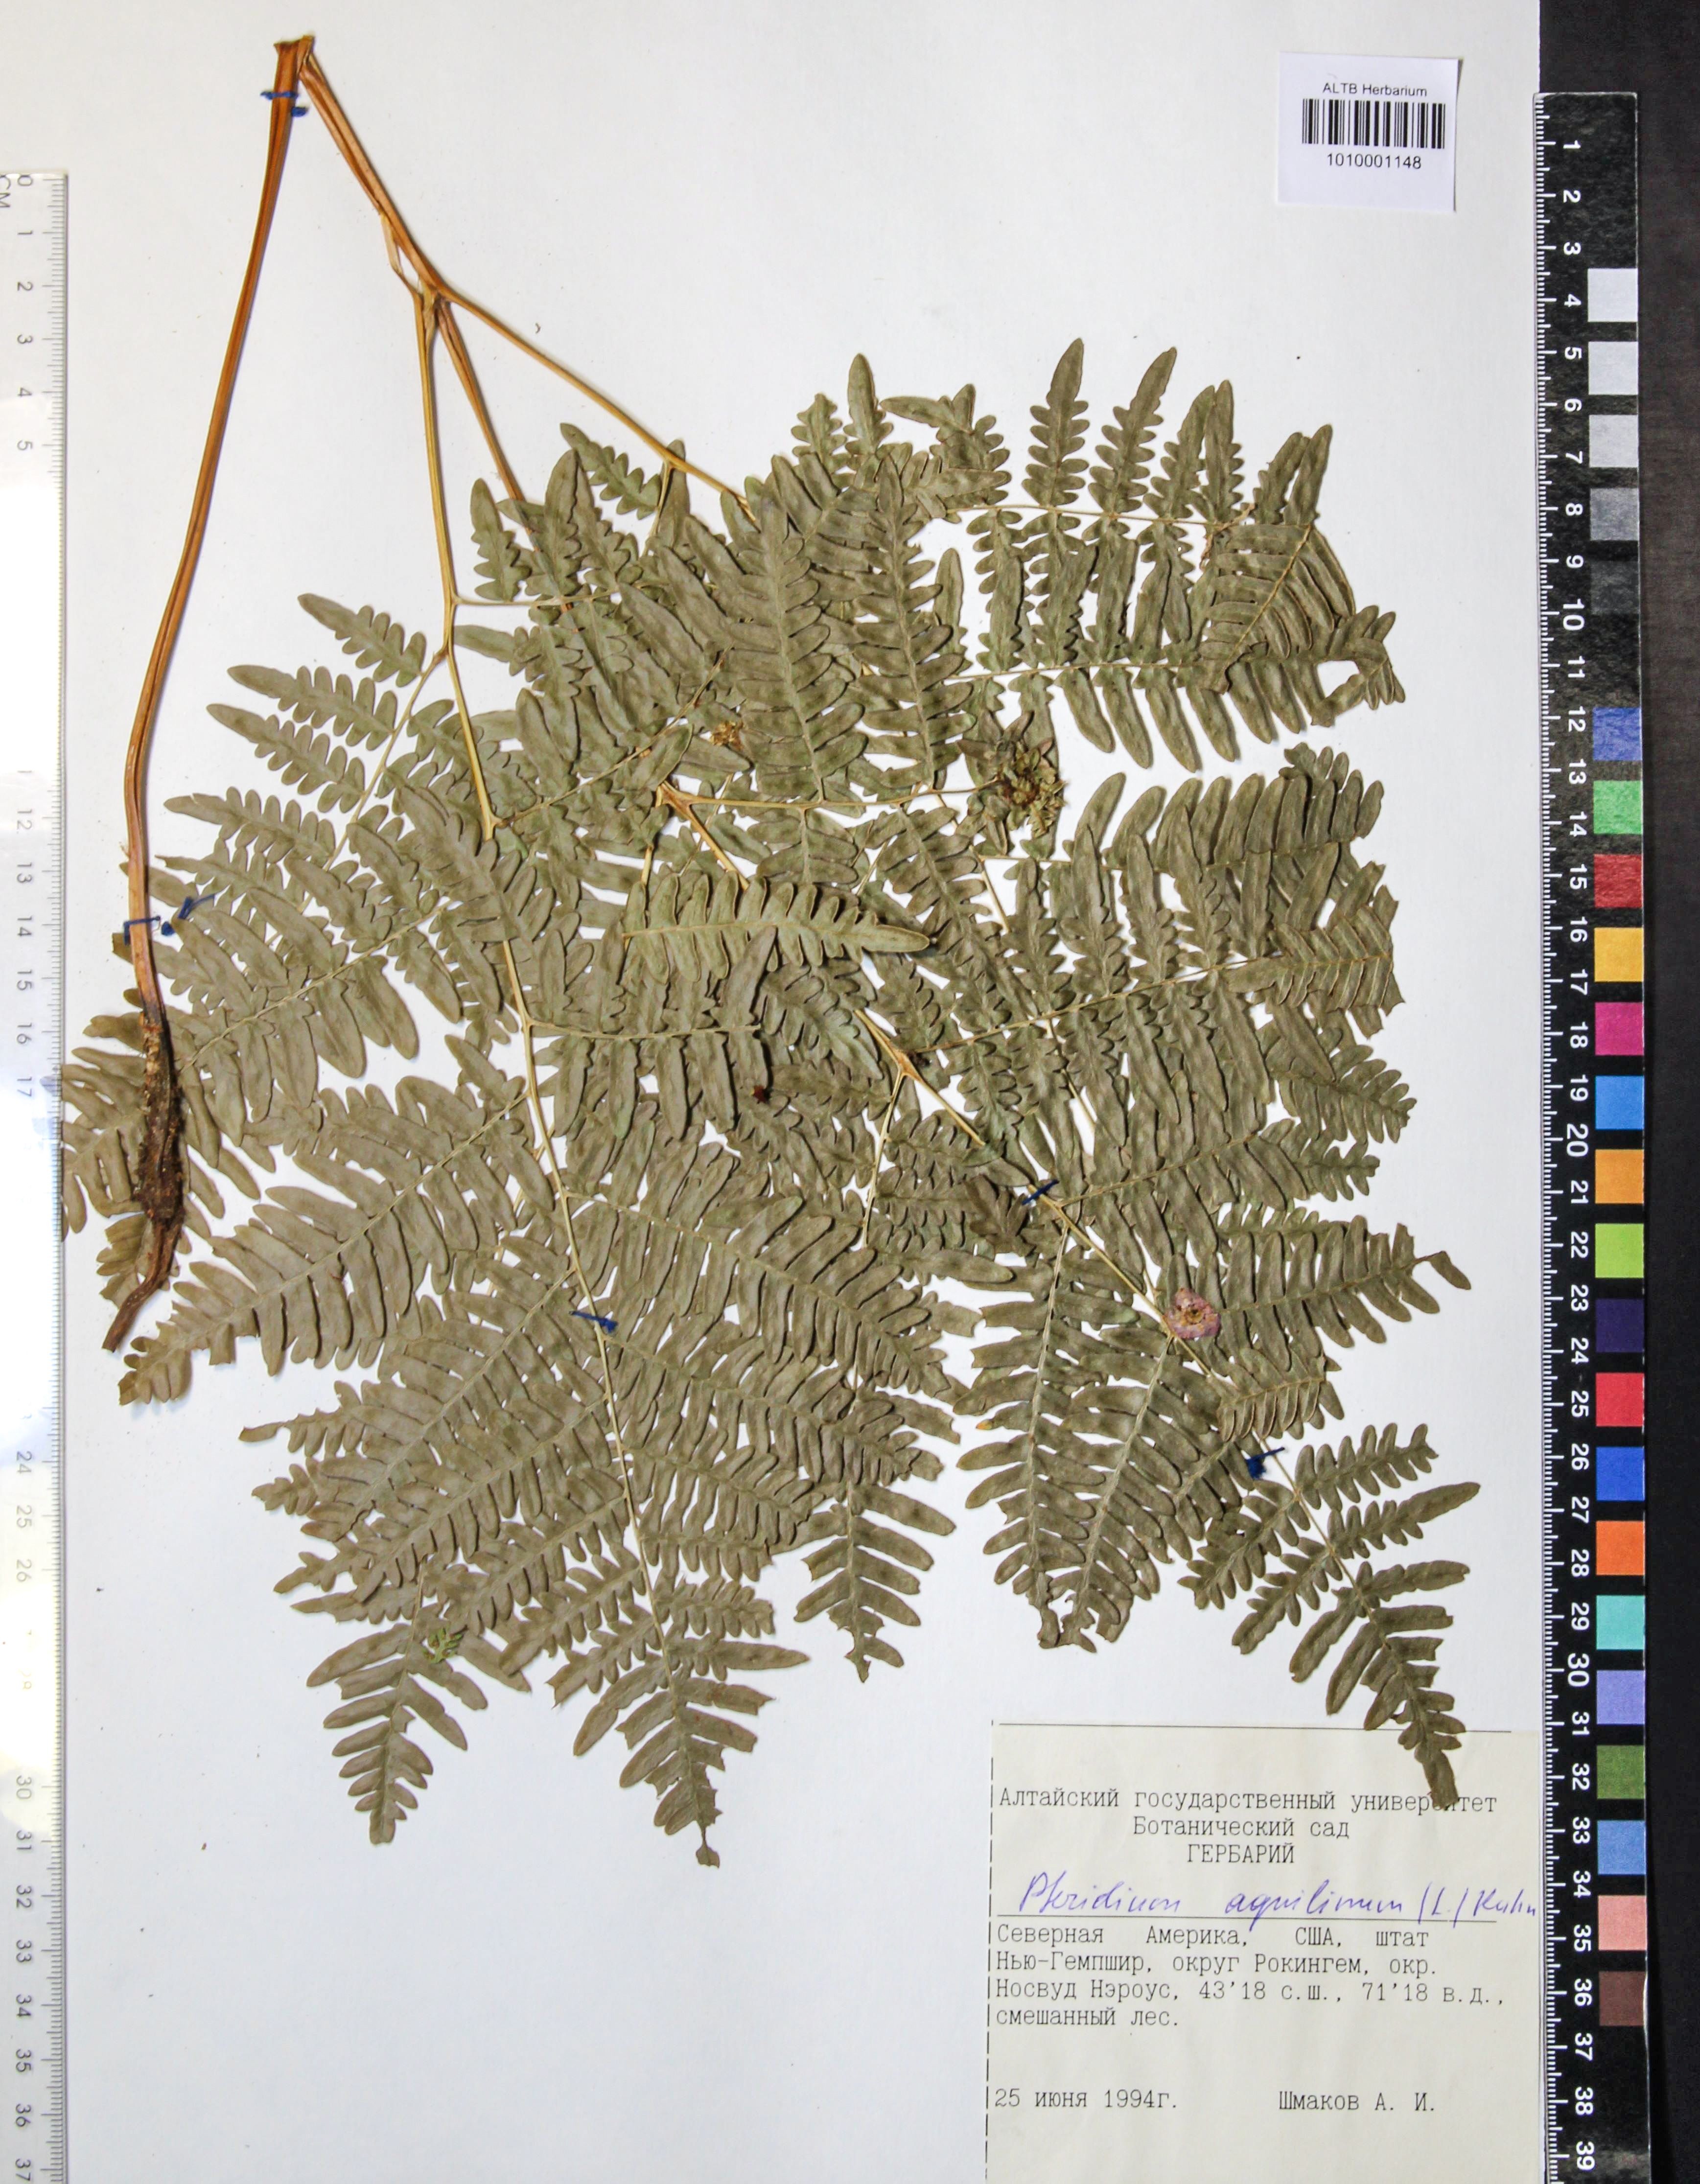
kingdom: Plantae
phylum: Tracheophyta
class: Polypodiopsida
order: Polypodiales
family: Dennstaedtiaceae
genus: Pteridium
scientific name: Pteridium aquilinum
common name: Bracken
